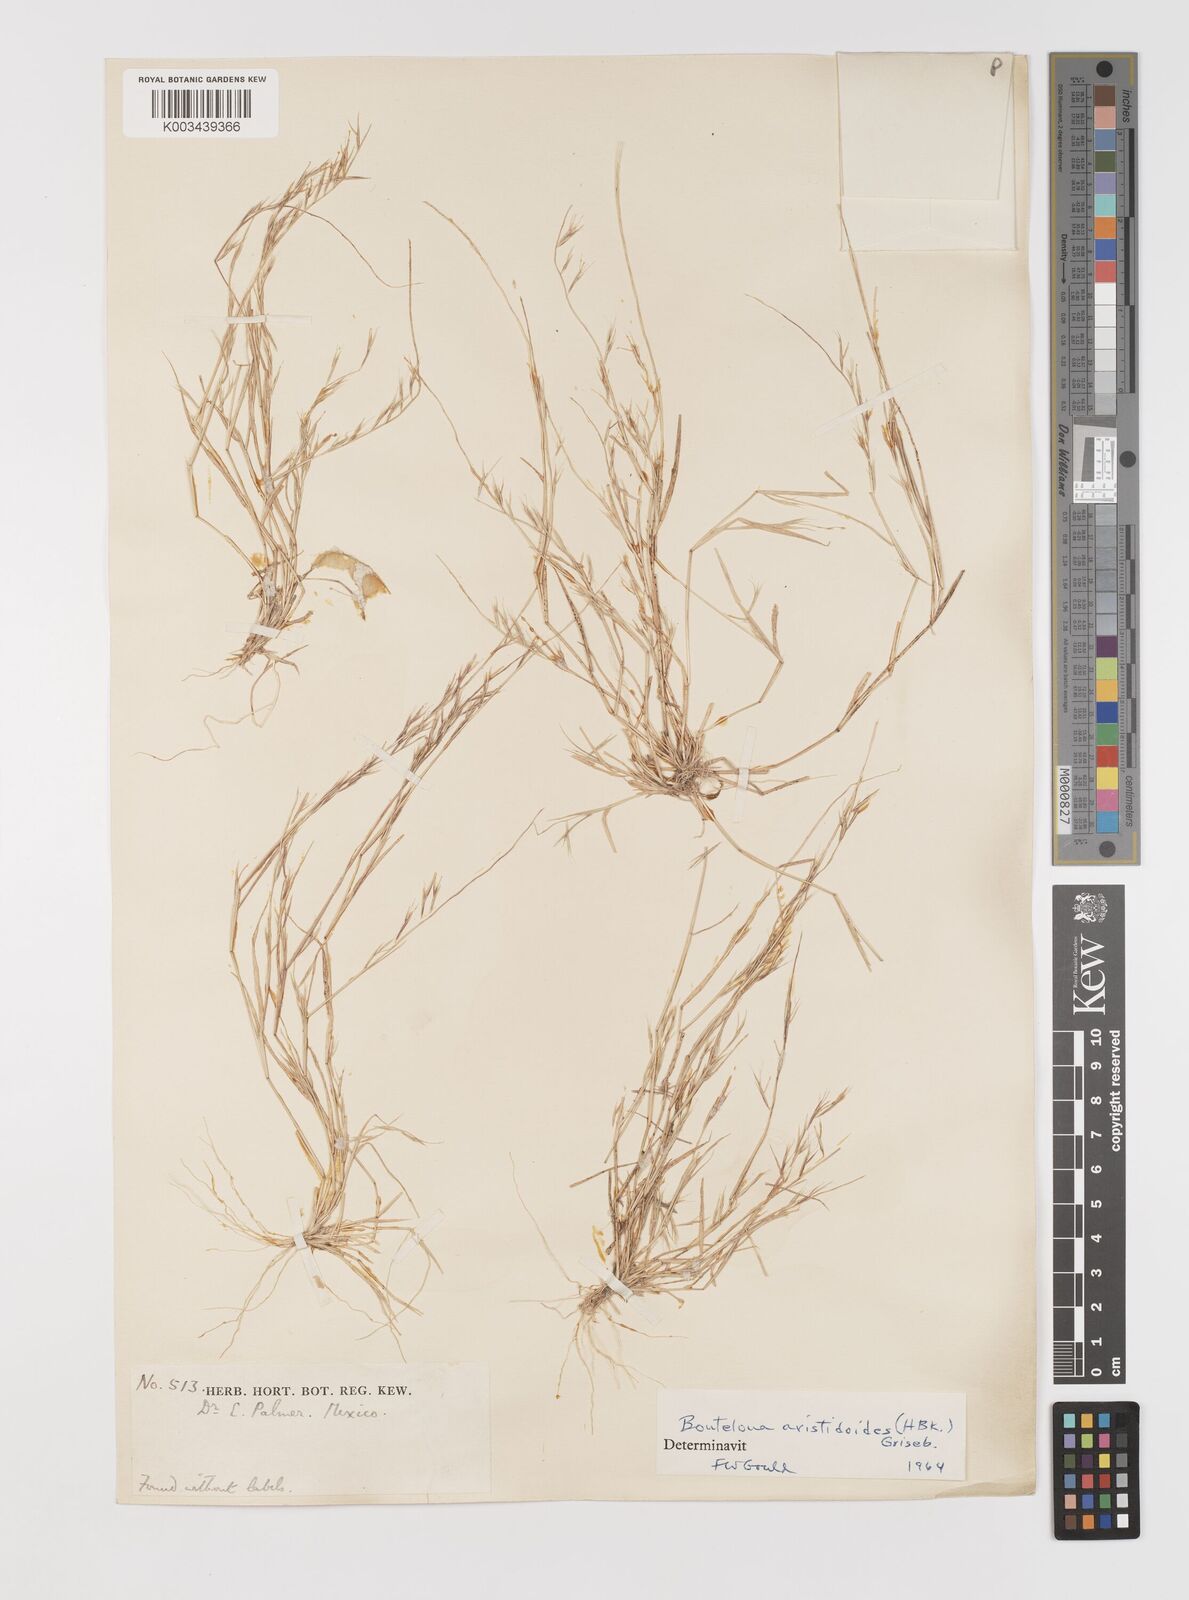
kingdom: Plantae
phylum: Tracheophyta
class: Liliopsida
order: Poales
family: Poaceae
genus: Bouteloua
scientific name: Bouteloua aristidoides
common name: Needle grama
